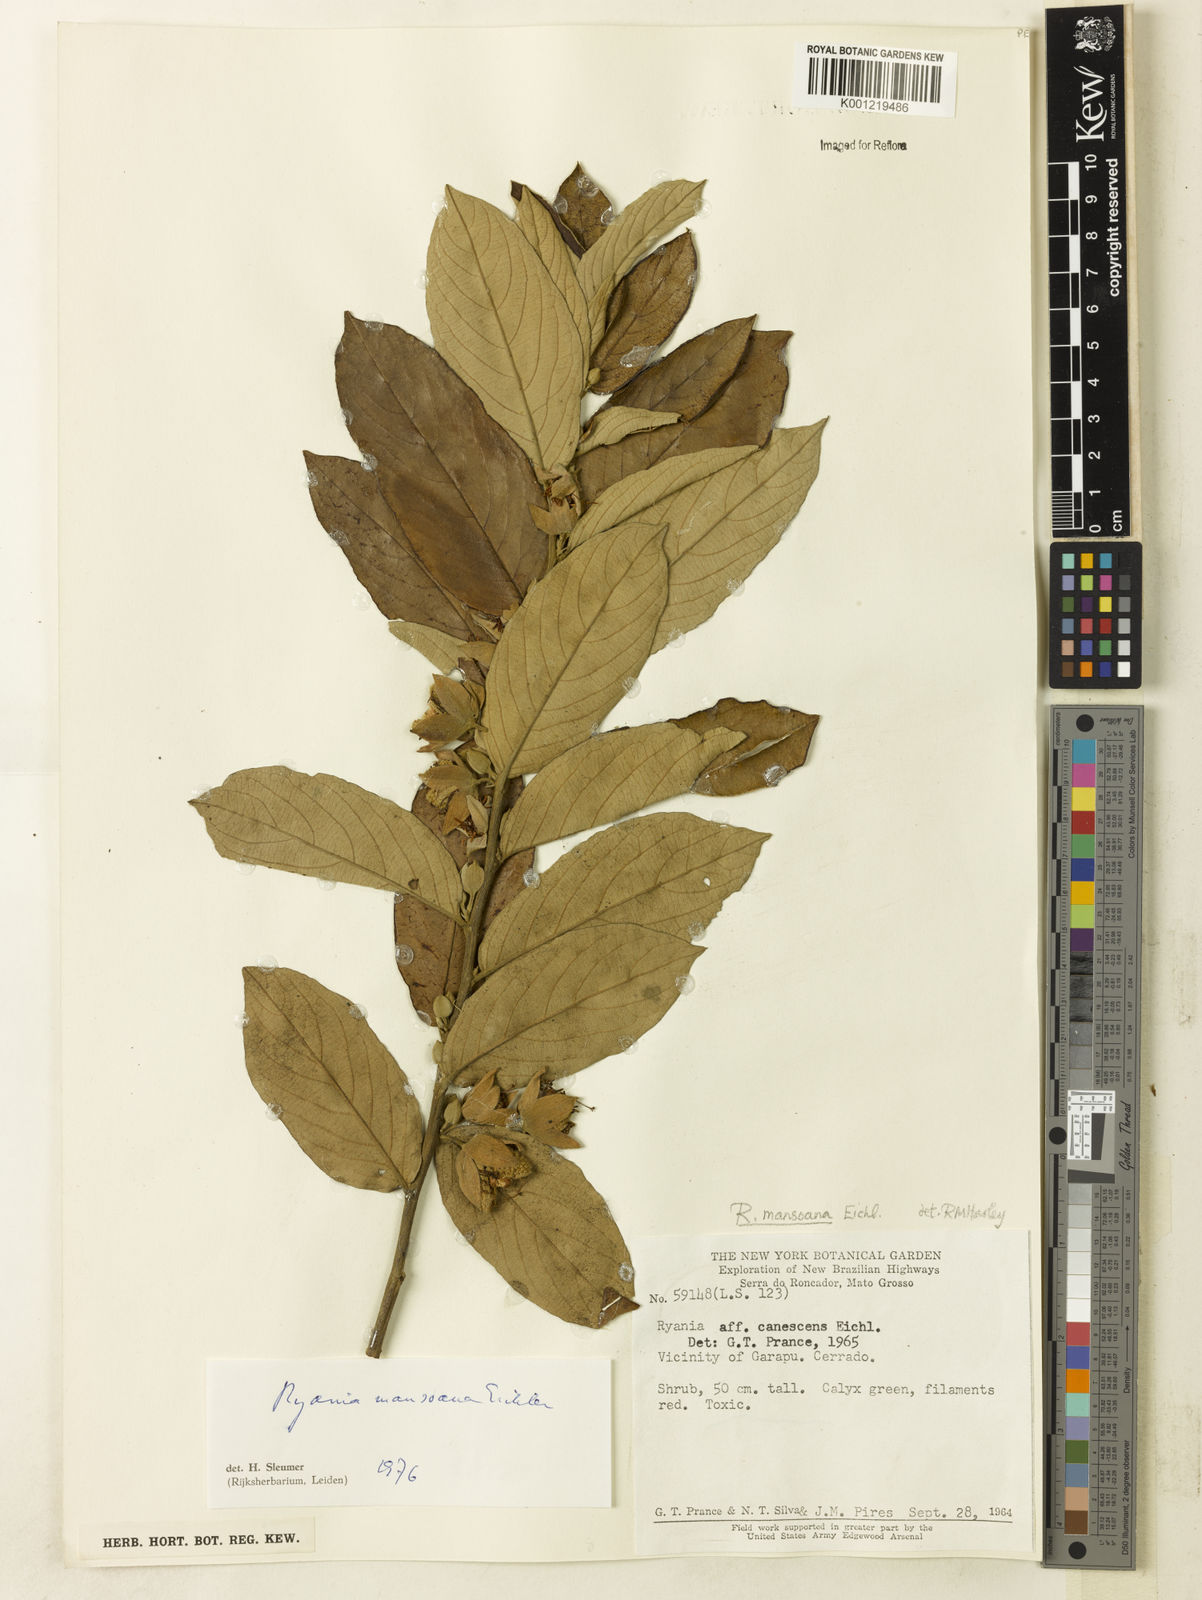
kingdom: Plantae
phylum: Tracheophyta
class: Magnoliopsida
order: Malpighiales
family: Salicaceae
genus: Ryania
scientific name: Ryania mansoana
